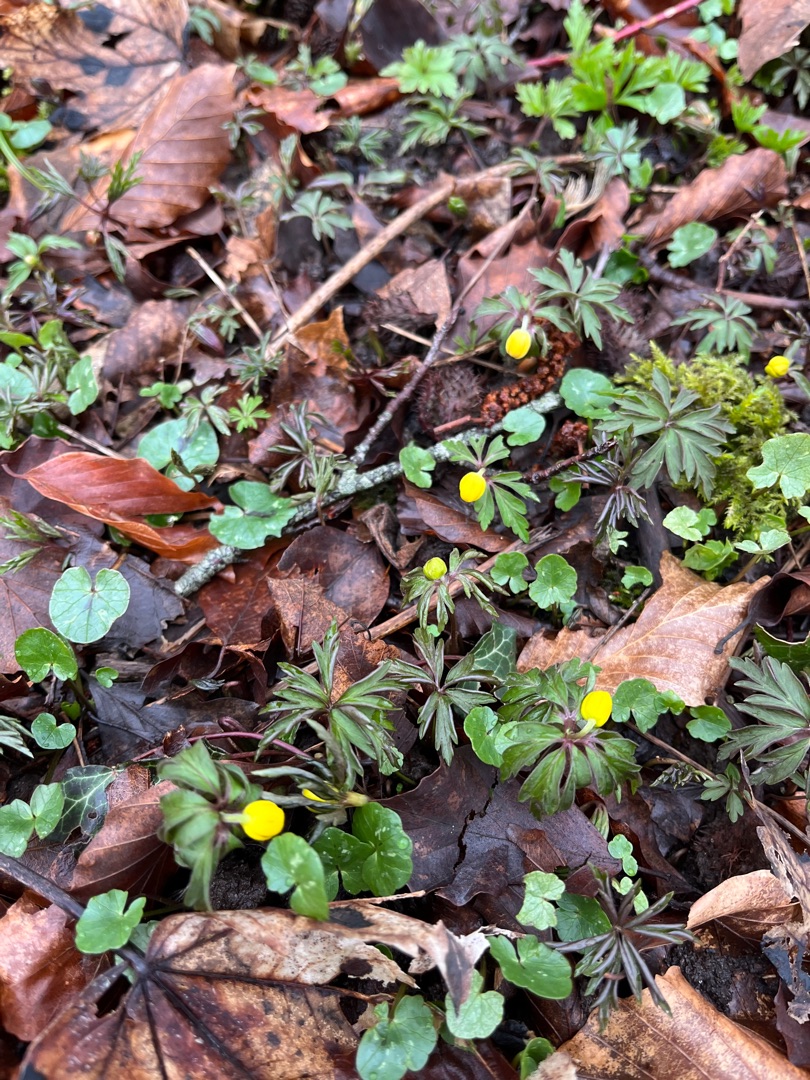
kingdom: Plantae
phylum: Tracheophyta
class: Magnoliopsida
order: Ranunculales
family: Ranunculaceae
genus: Anemone
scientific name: Anemone ranunculoides
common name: Gul anemone
